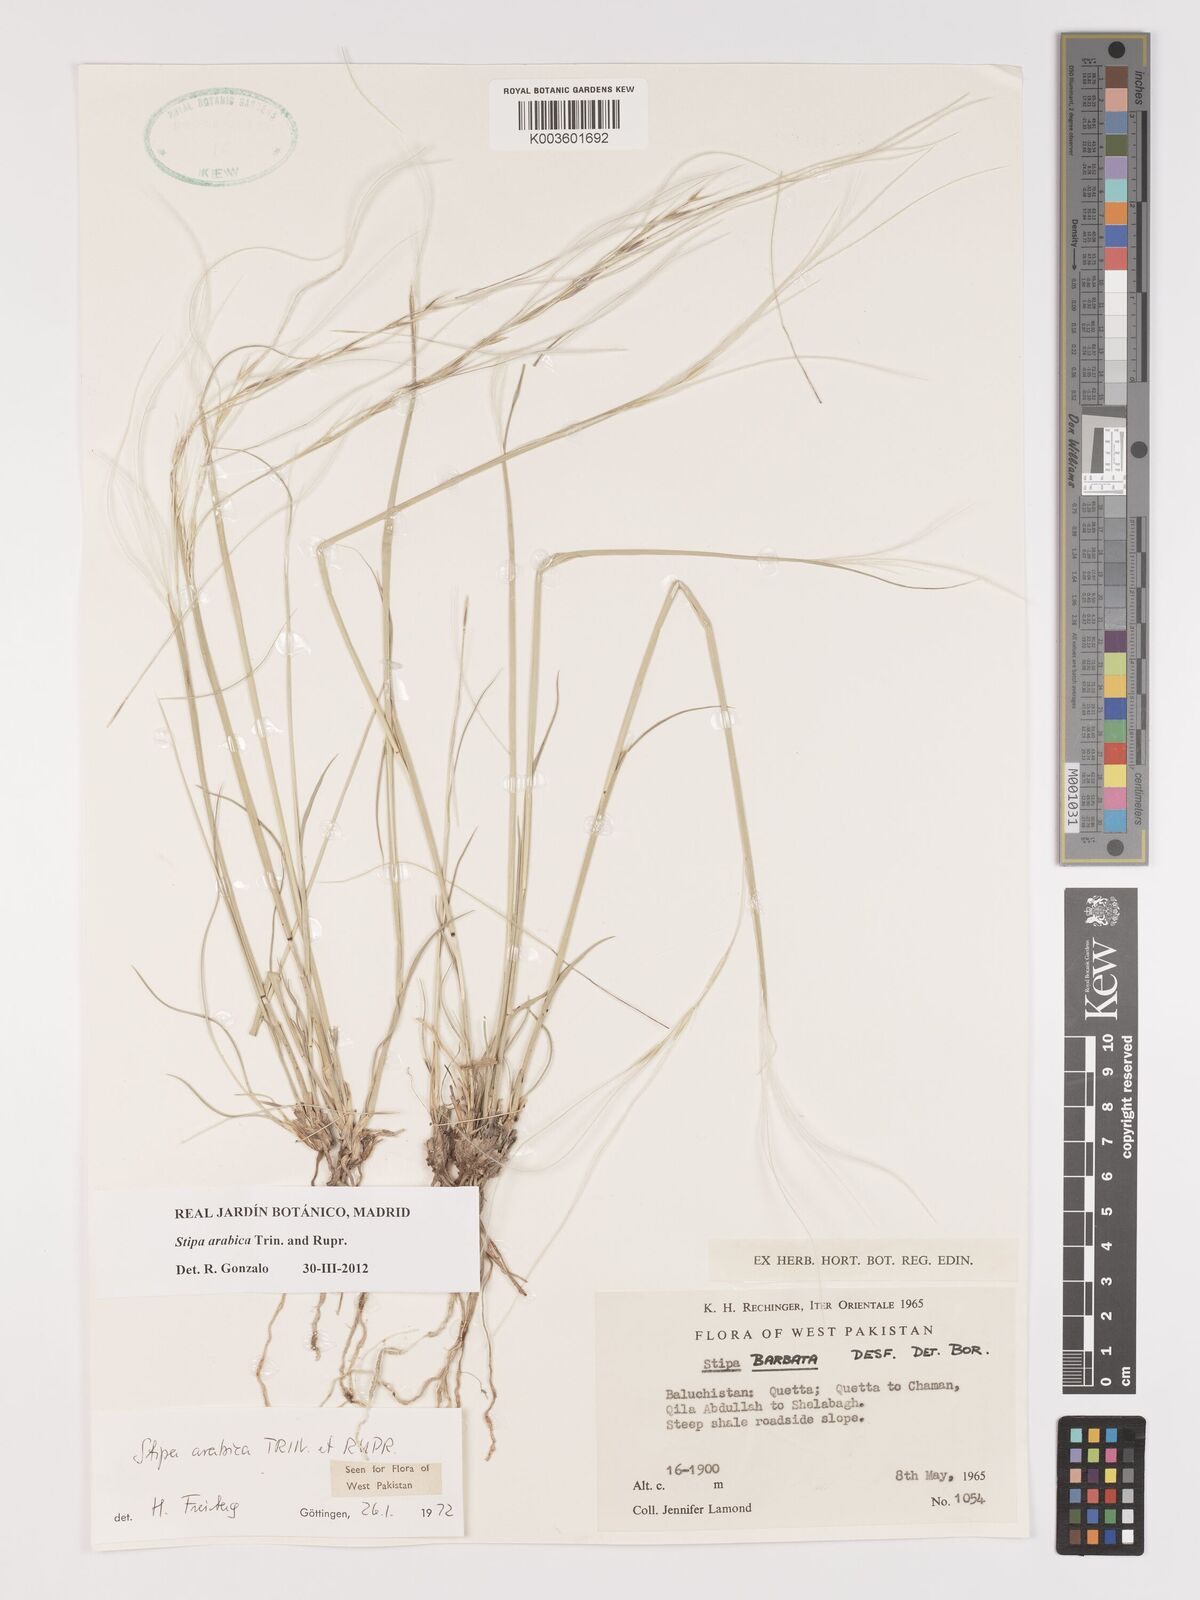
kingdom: Plantae
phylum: Tracheophyta
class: Liliopsida
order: Poales
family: Poaceae
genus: Stipa
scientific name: Stipa arabica
